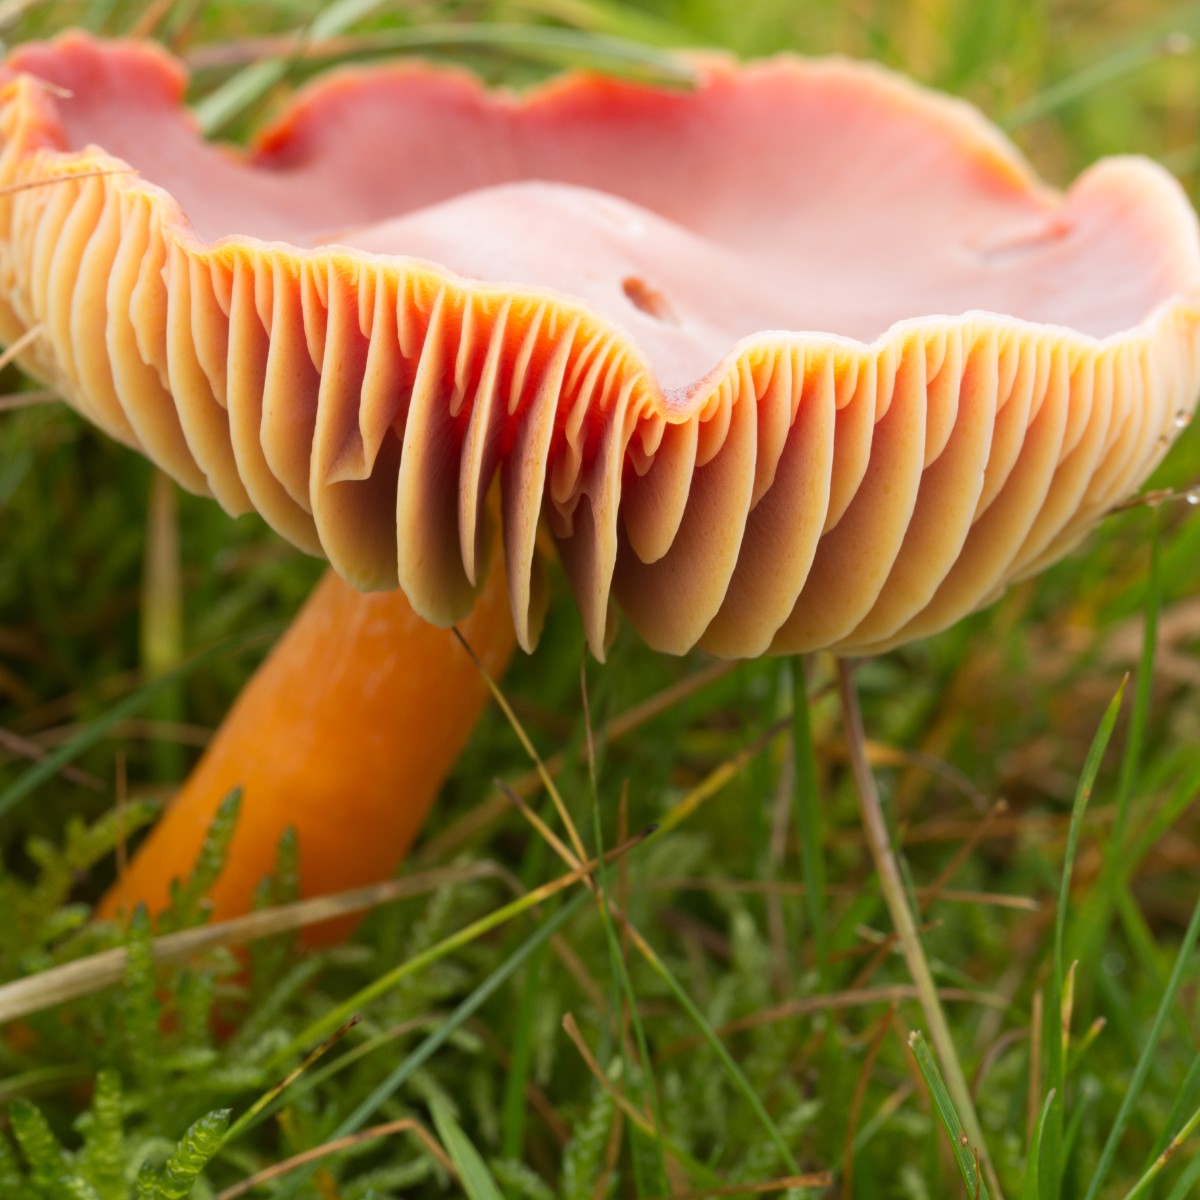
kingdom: Fungi
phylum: Basidiomycota
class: Agaricomycetes
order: Agaricales
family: Hygrophoraceae
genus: Hygrocybe
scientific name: Hygrocybe punicea
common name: skarlagen-vokshat
